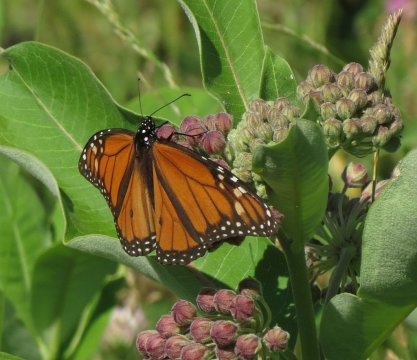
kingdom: Animalia
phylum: Arthropoda
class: Insecta
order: Lepidoptera
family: Nymphalidae
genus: Danaus
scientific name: Danaus plexippus
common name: Monarch
